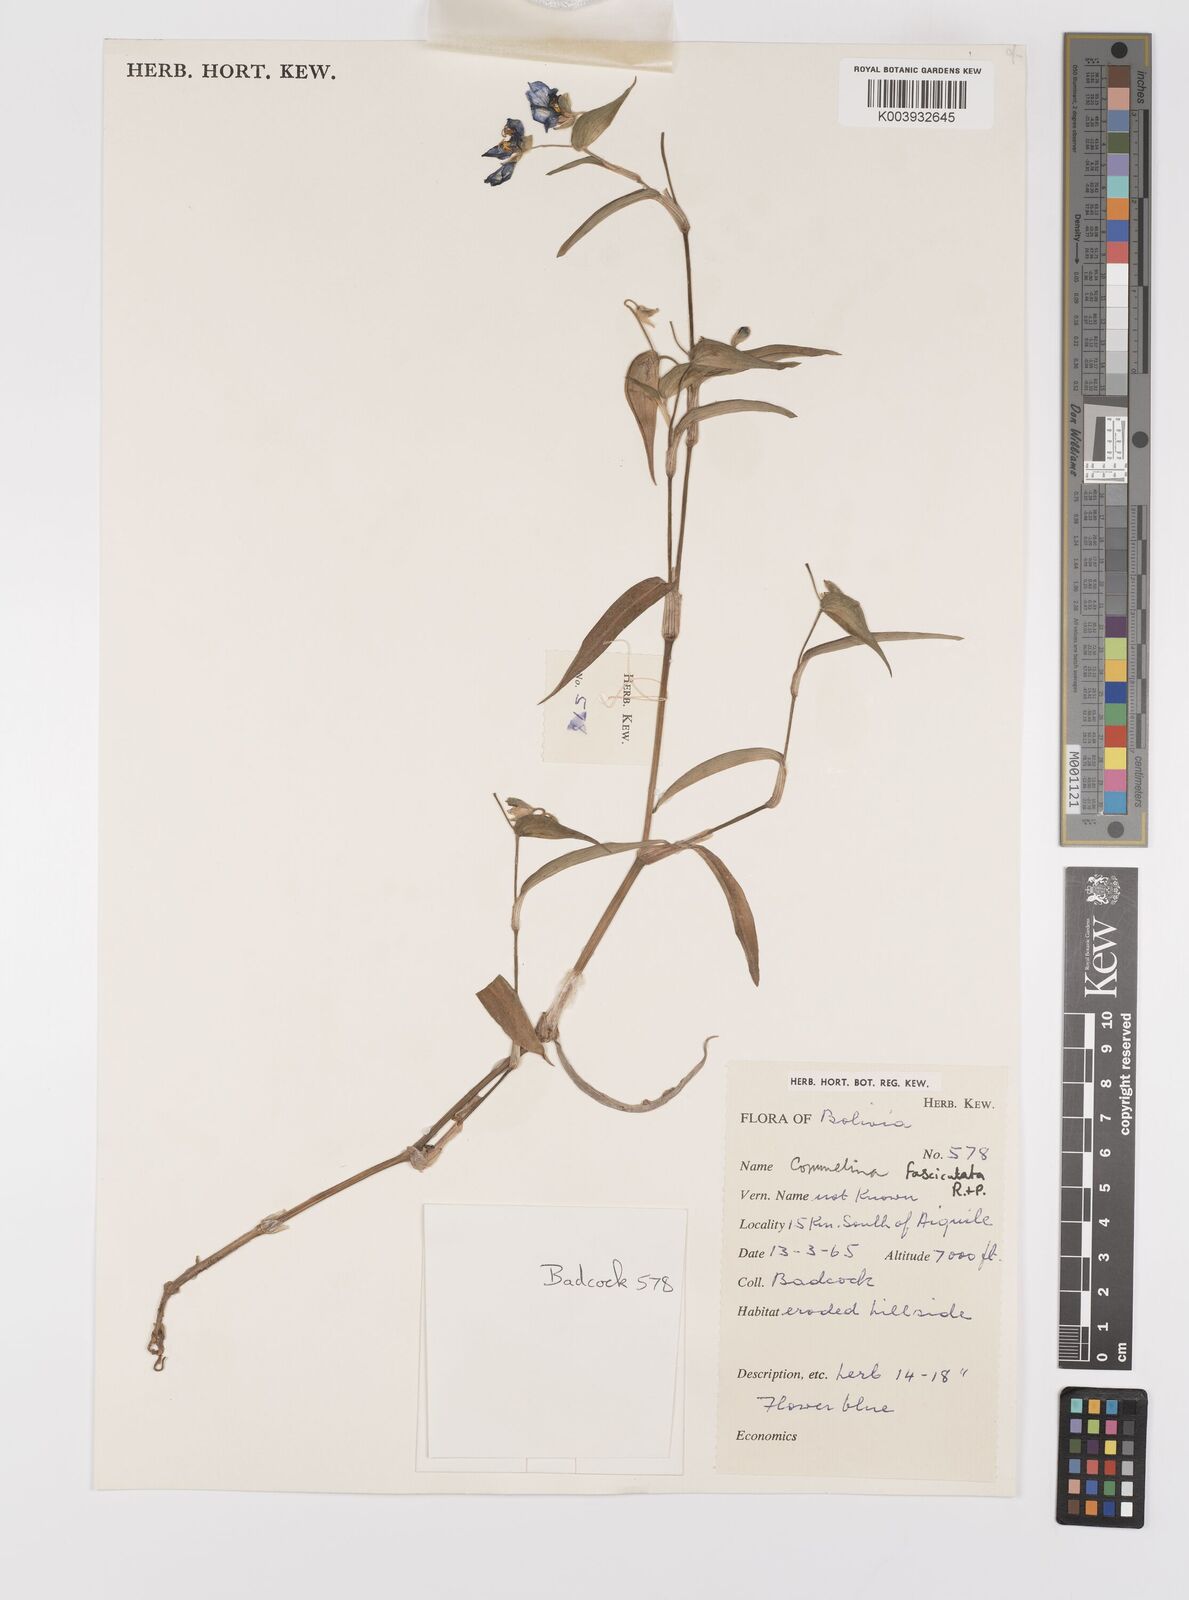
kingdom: Plantae
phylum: Tracheophyta
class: Liliopsida
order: Commelinales
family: Commelinaceae
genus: Commelina
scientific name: Commelina tuberosa
